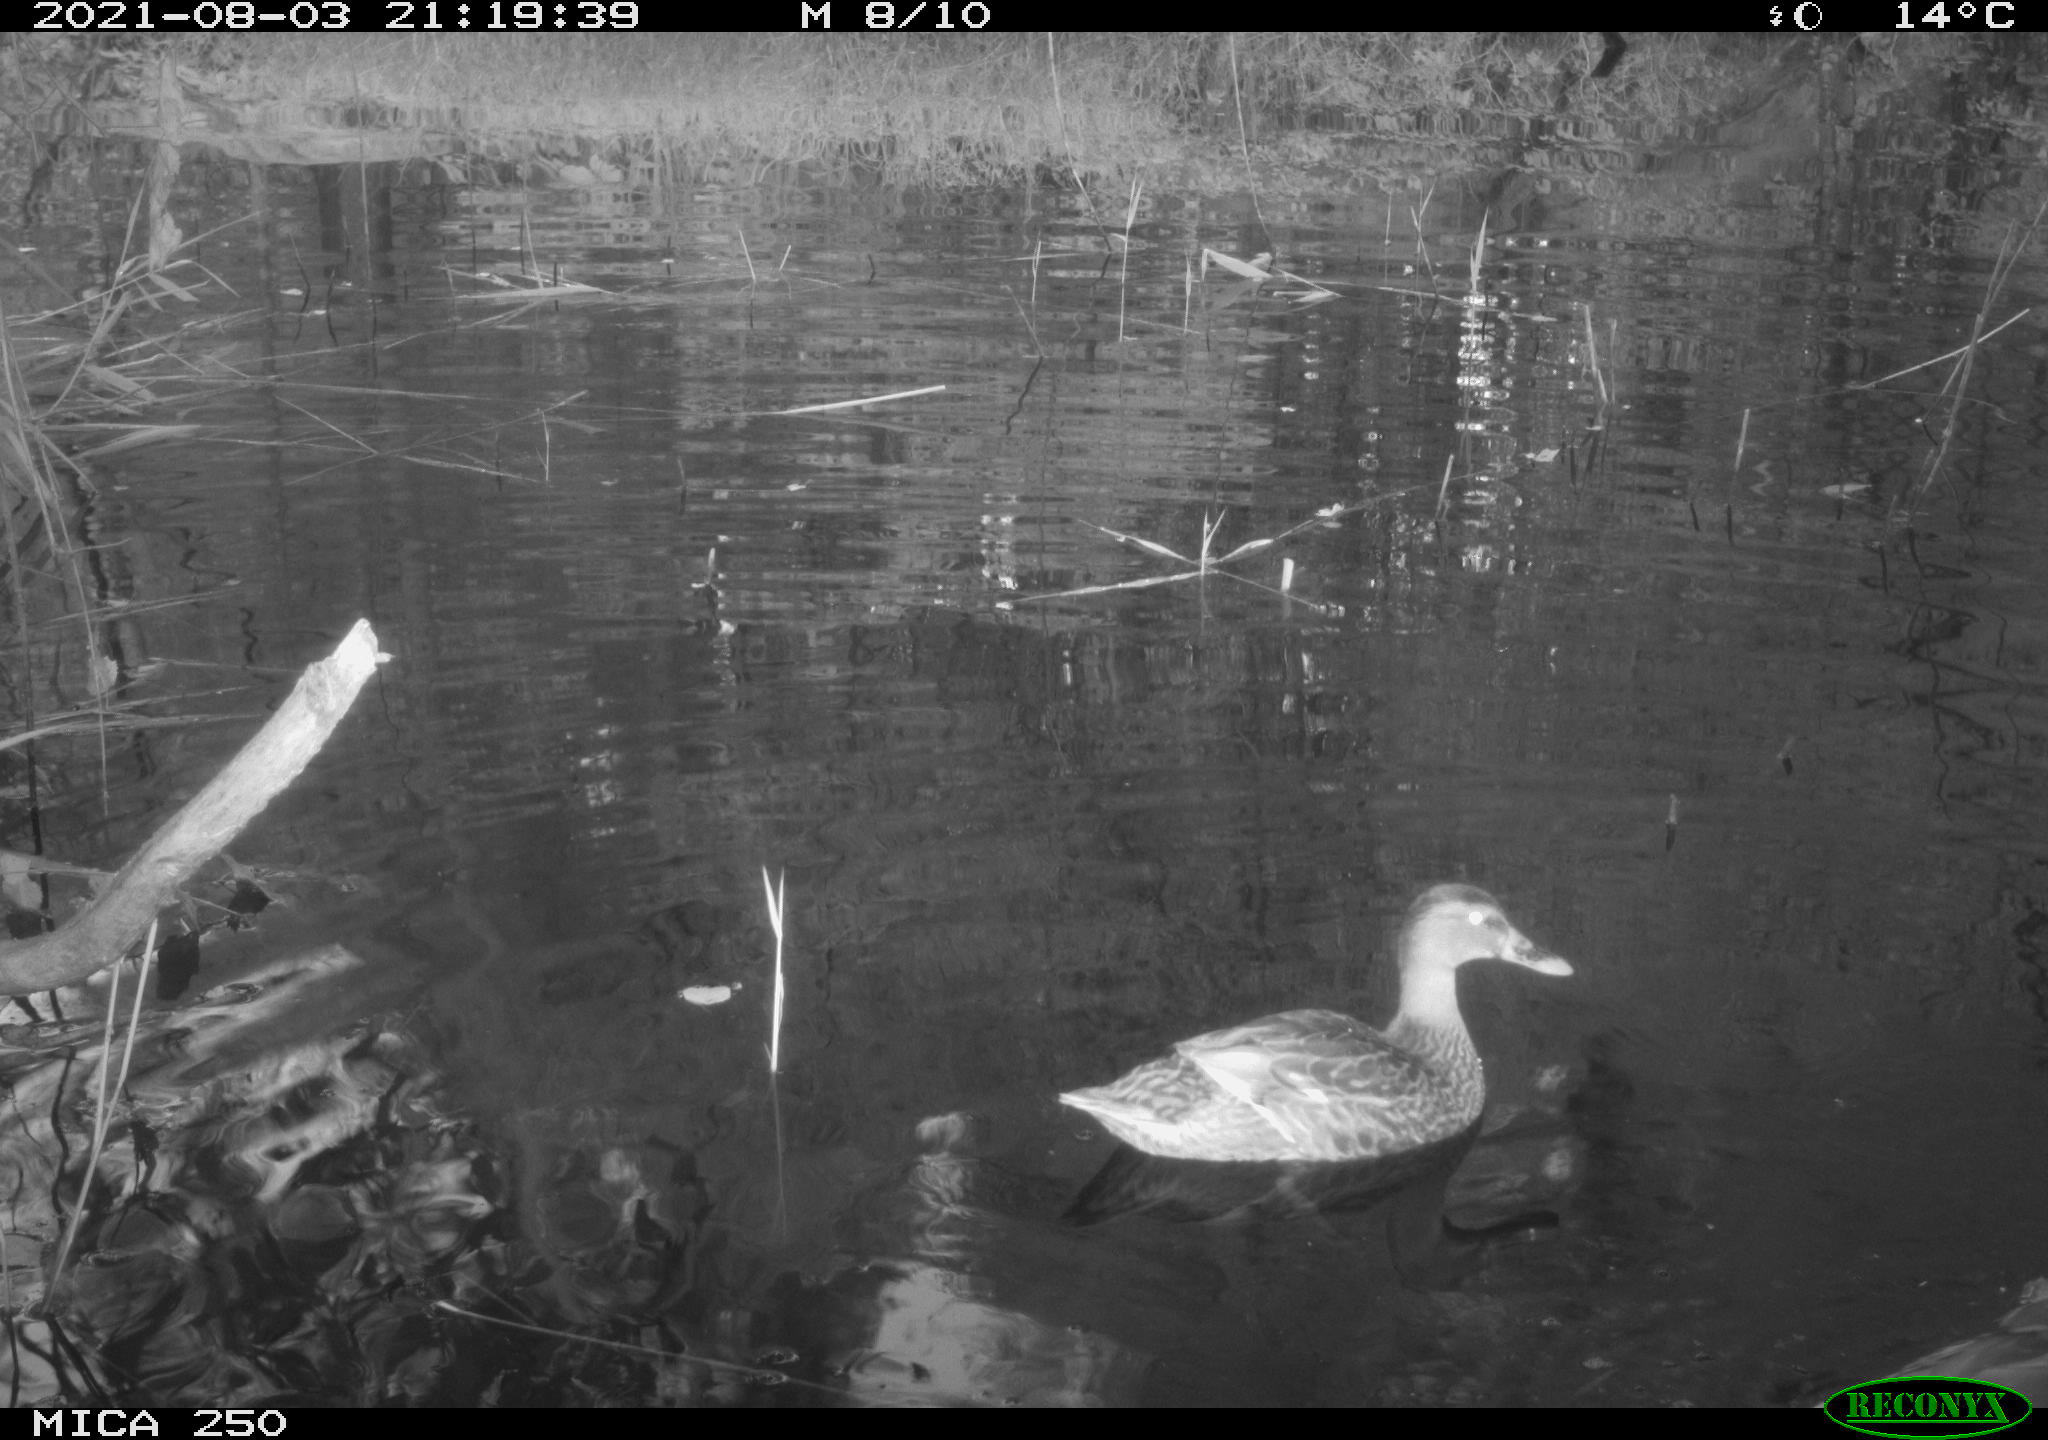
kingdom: Animalia
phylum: Chordata
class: Aves
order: Anseriformes
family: Anatidae
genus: Anas
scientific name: Anas platyrhynchos
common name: Mallard
